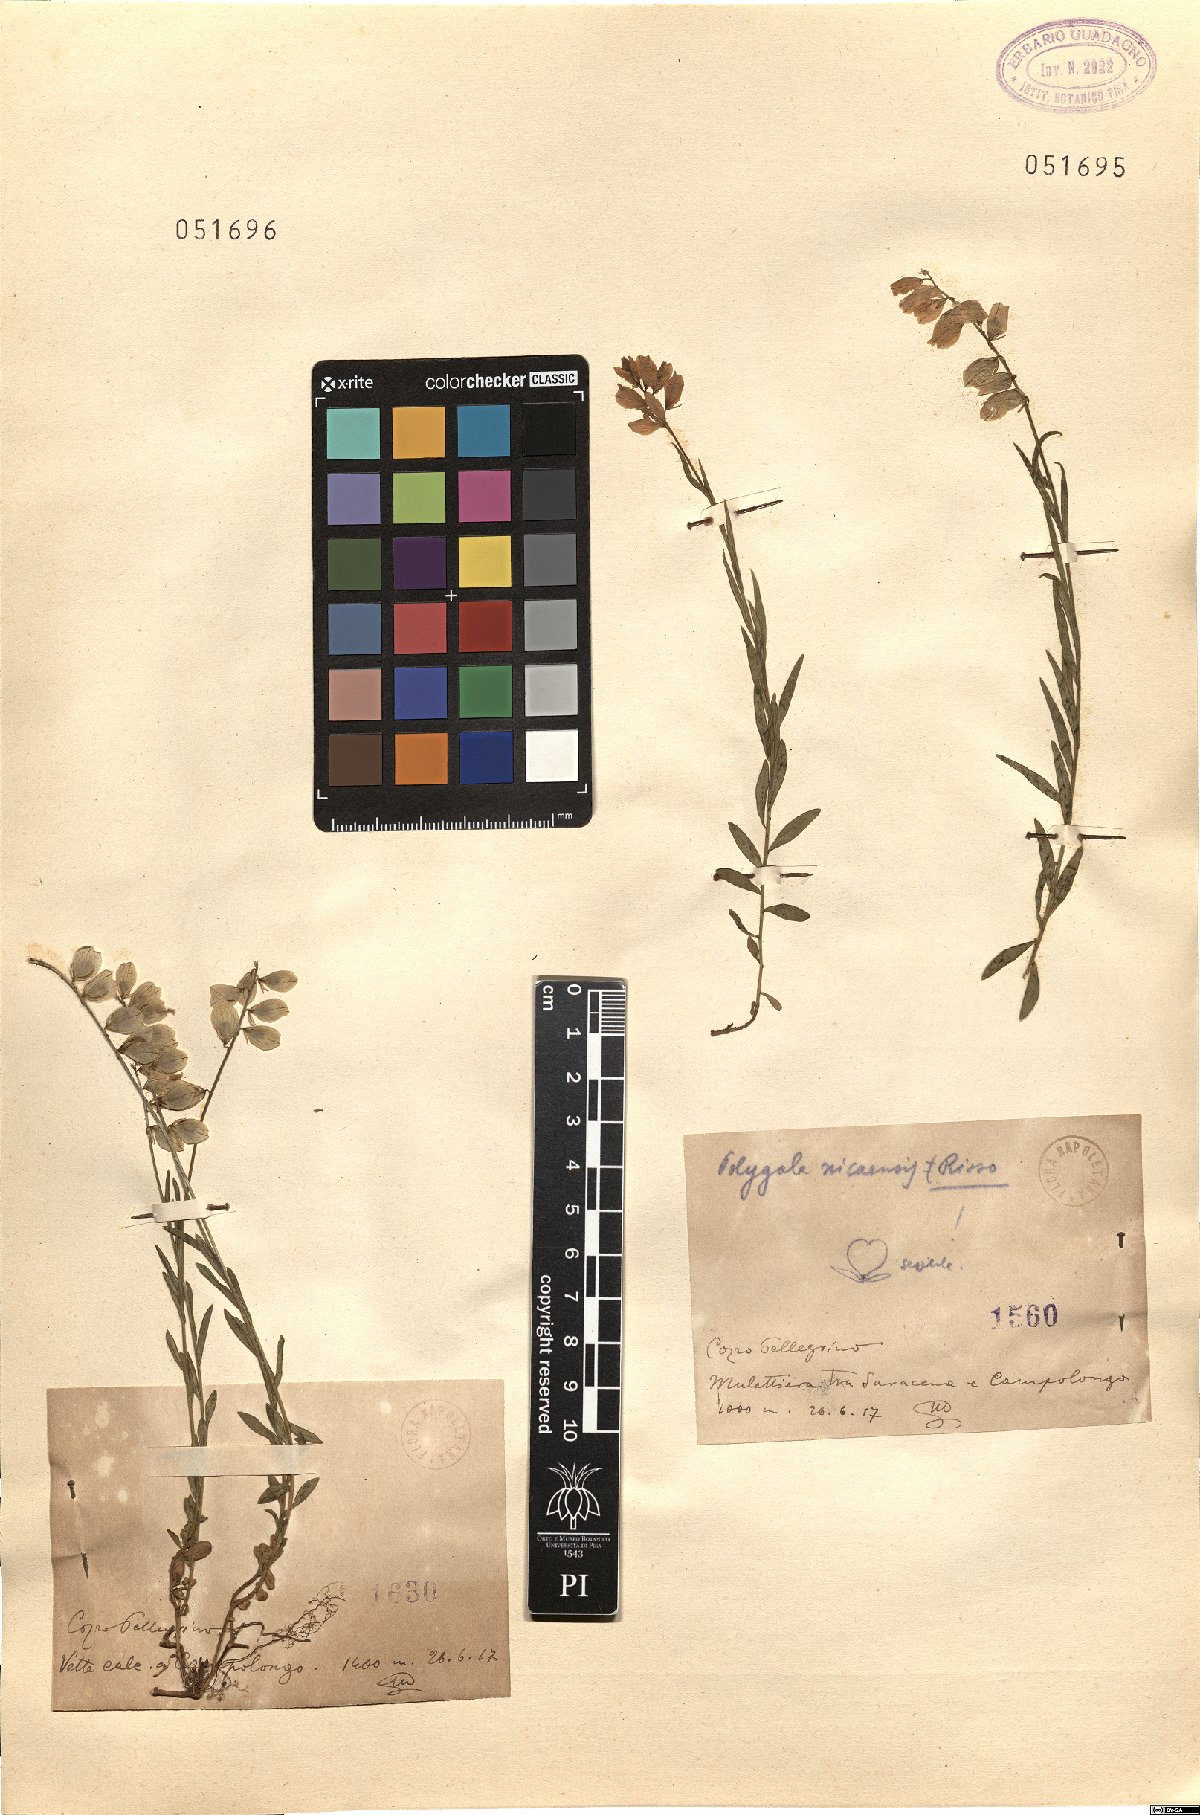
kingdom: Plantae
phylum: Tracheophyta
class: Magnoliopsida
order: Fabales
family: Polygalaceae
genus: Polygala
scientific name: Polygala nicaeensis
